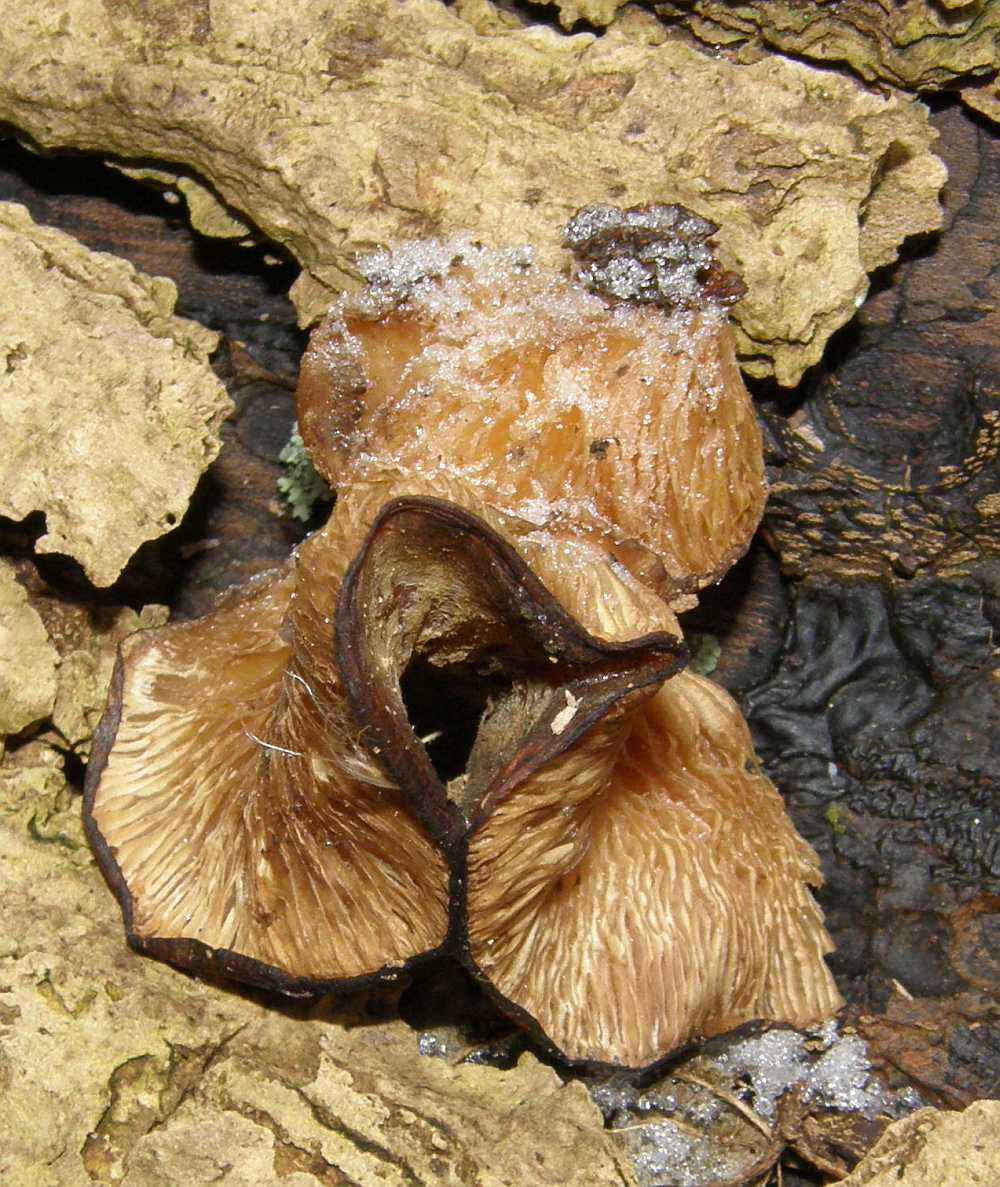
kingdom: Fungi
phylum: Basidiomycota
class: Agaricomycetes
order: Agaricales
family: Pleurotaceae
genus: Pleurotus
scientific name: Pleurotus ostreatus
